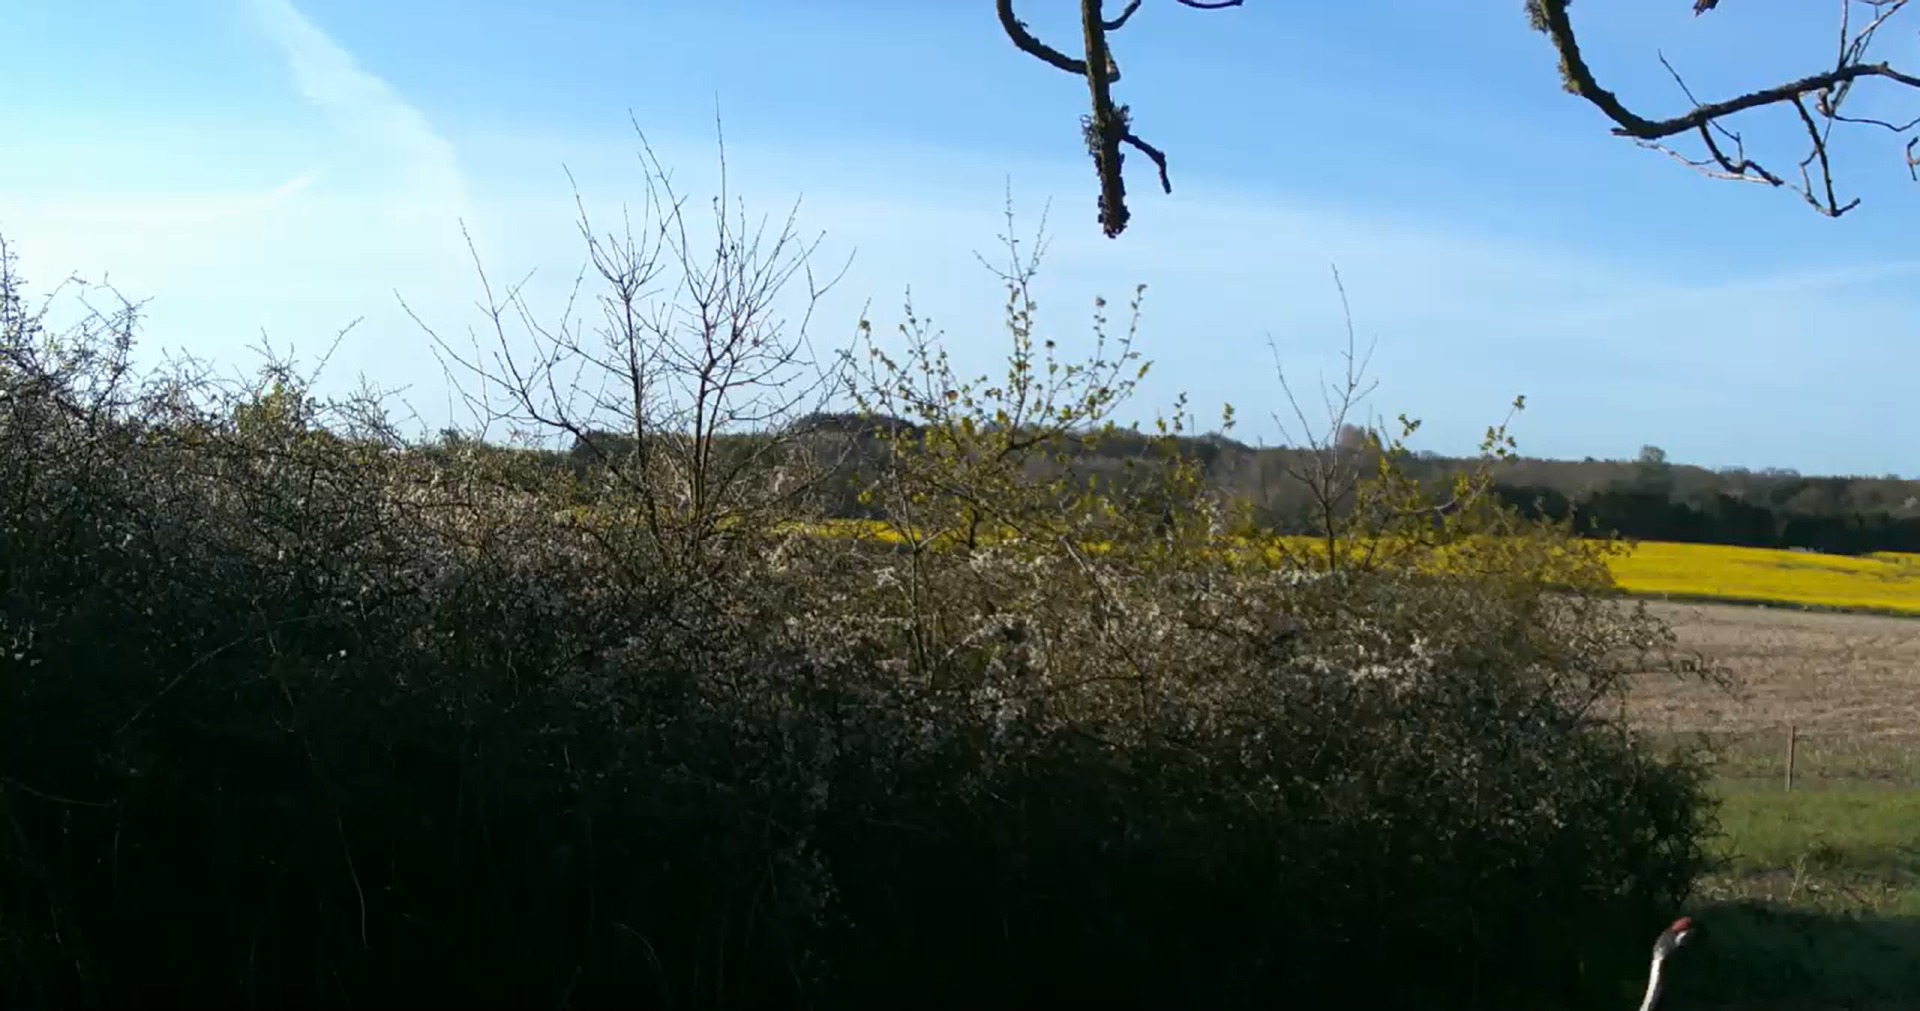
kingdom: Animalia
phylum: Chordata
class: Aves
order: Gruiformes
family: Gruidae
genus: Grus
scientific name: Grus grus
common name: Trane
